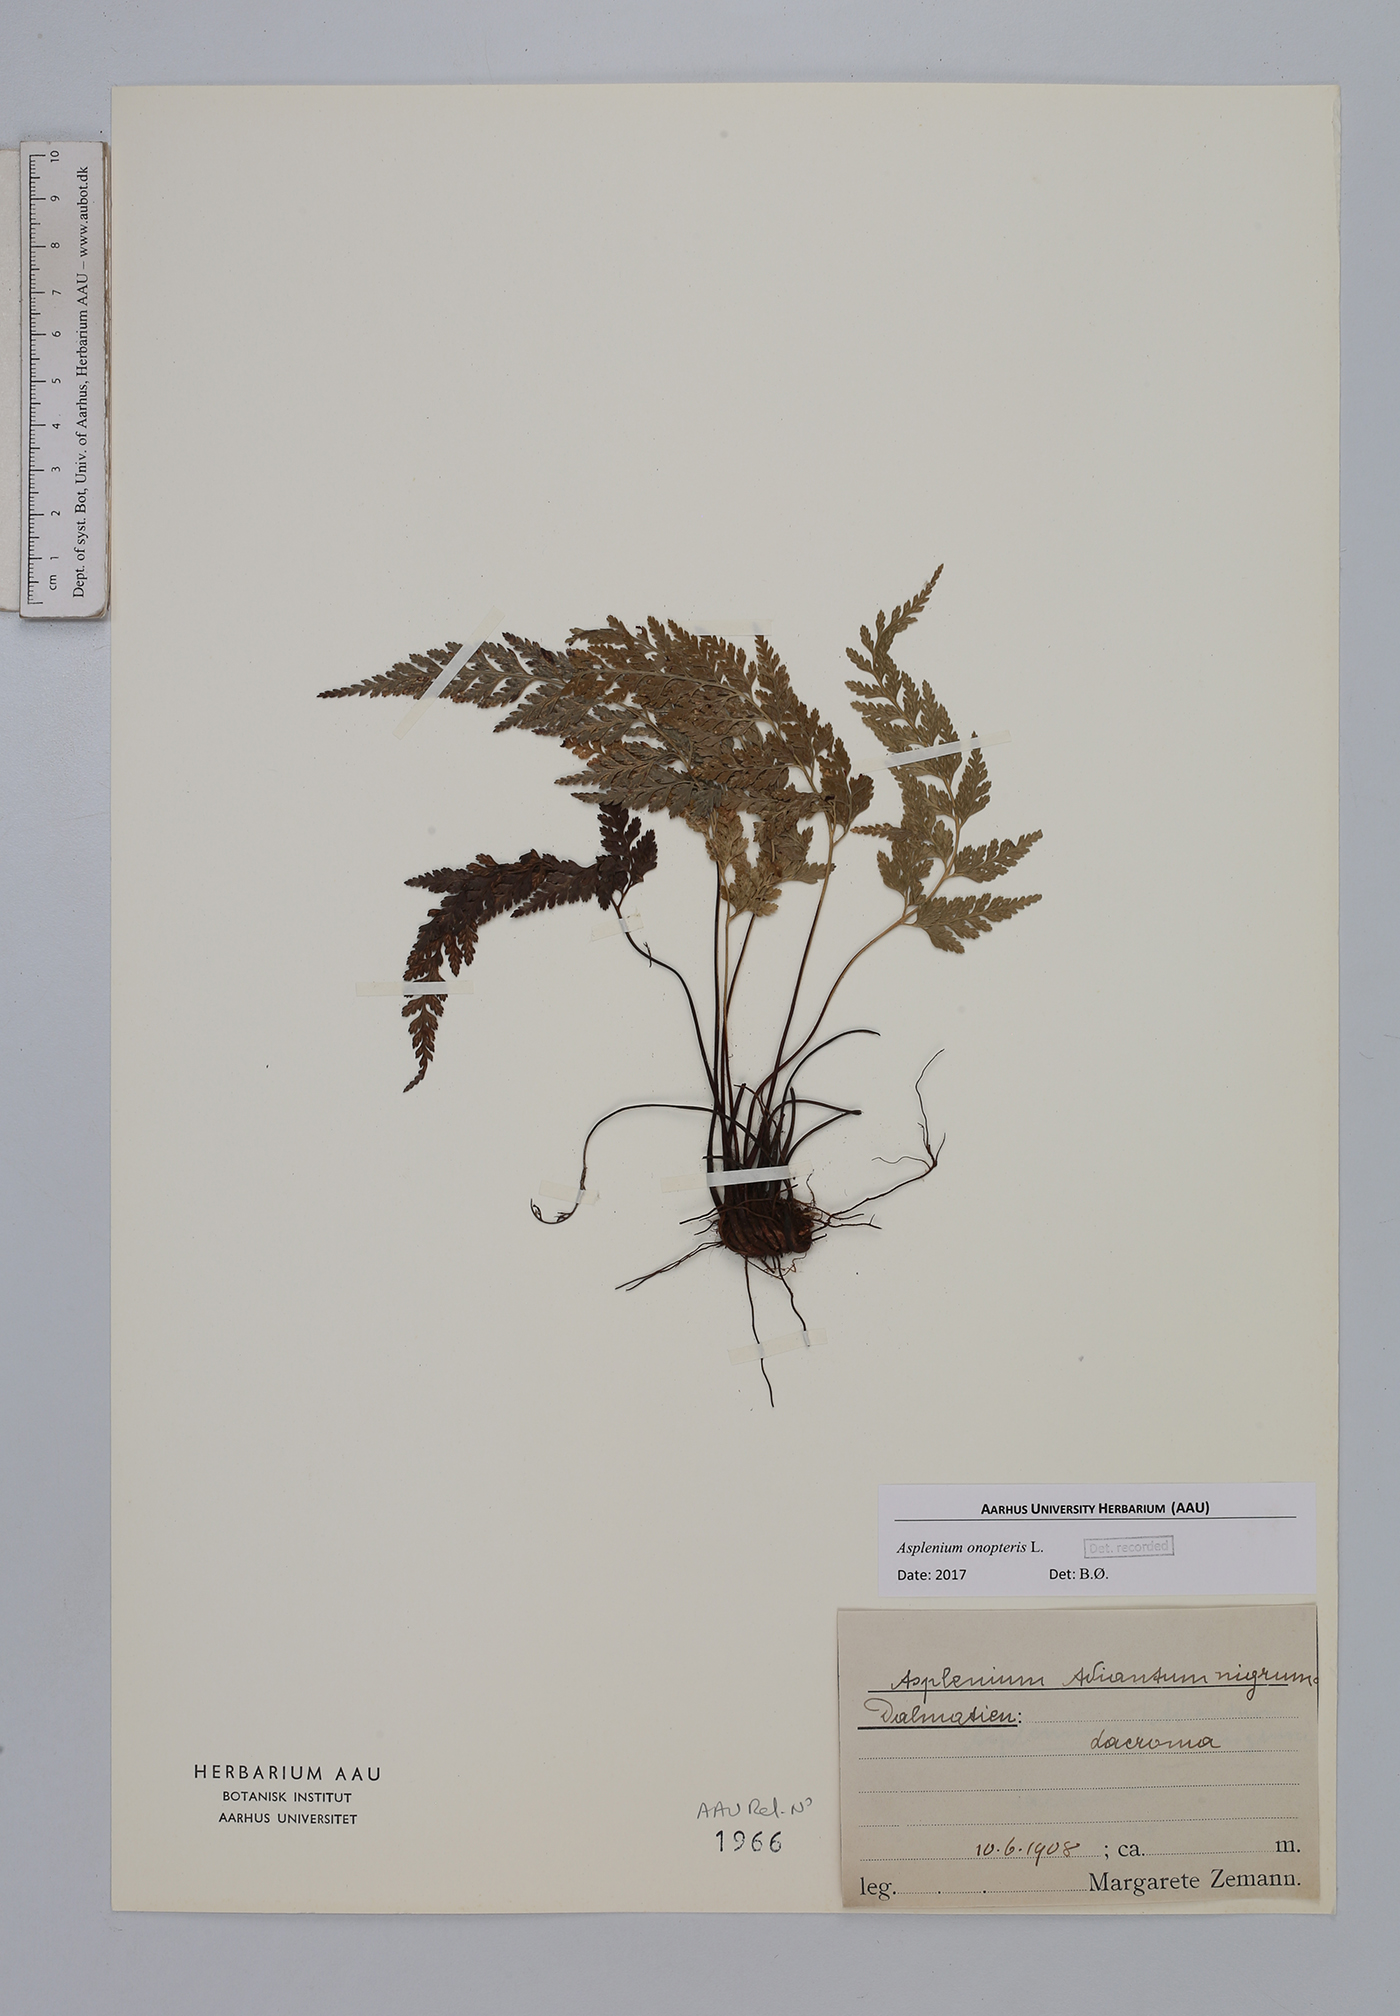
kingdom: Plantae
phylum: Tracheophyta
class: Polypodiopsida
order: Polypodiales
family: Aspleniaceae
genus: Asplenium
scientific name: Asplenium onopteris
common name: Irish spleenwort
